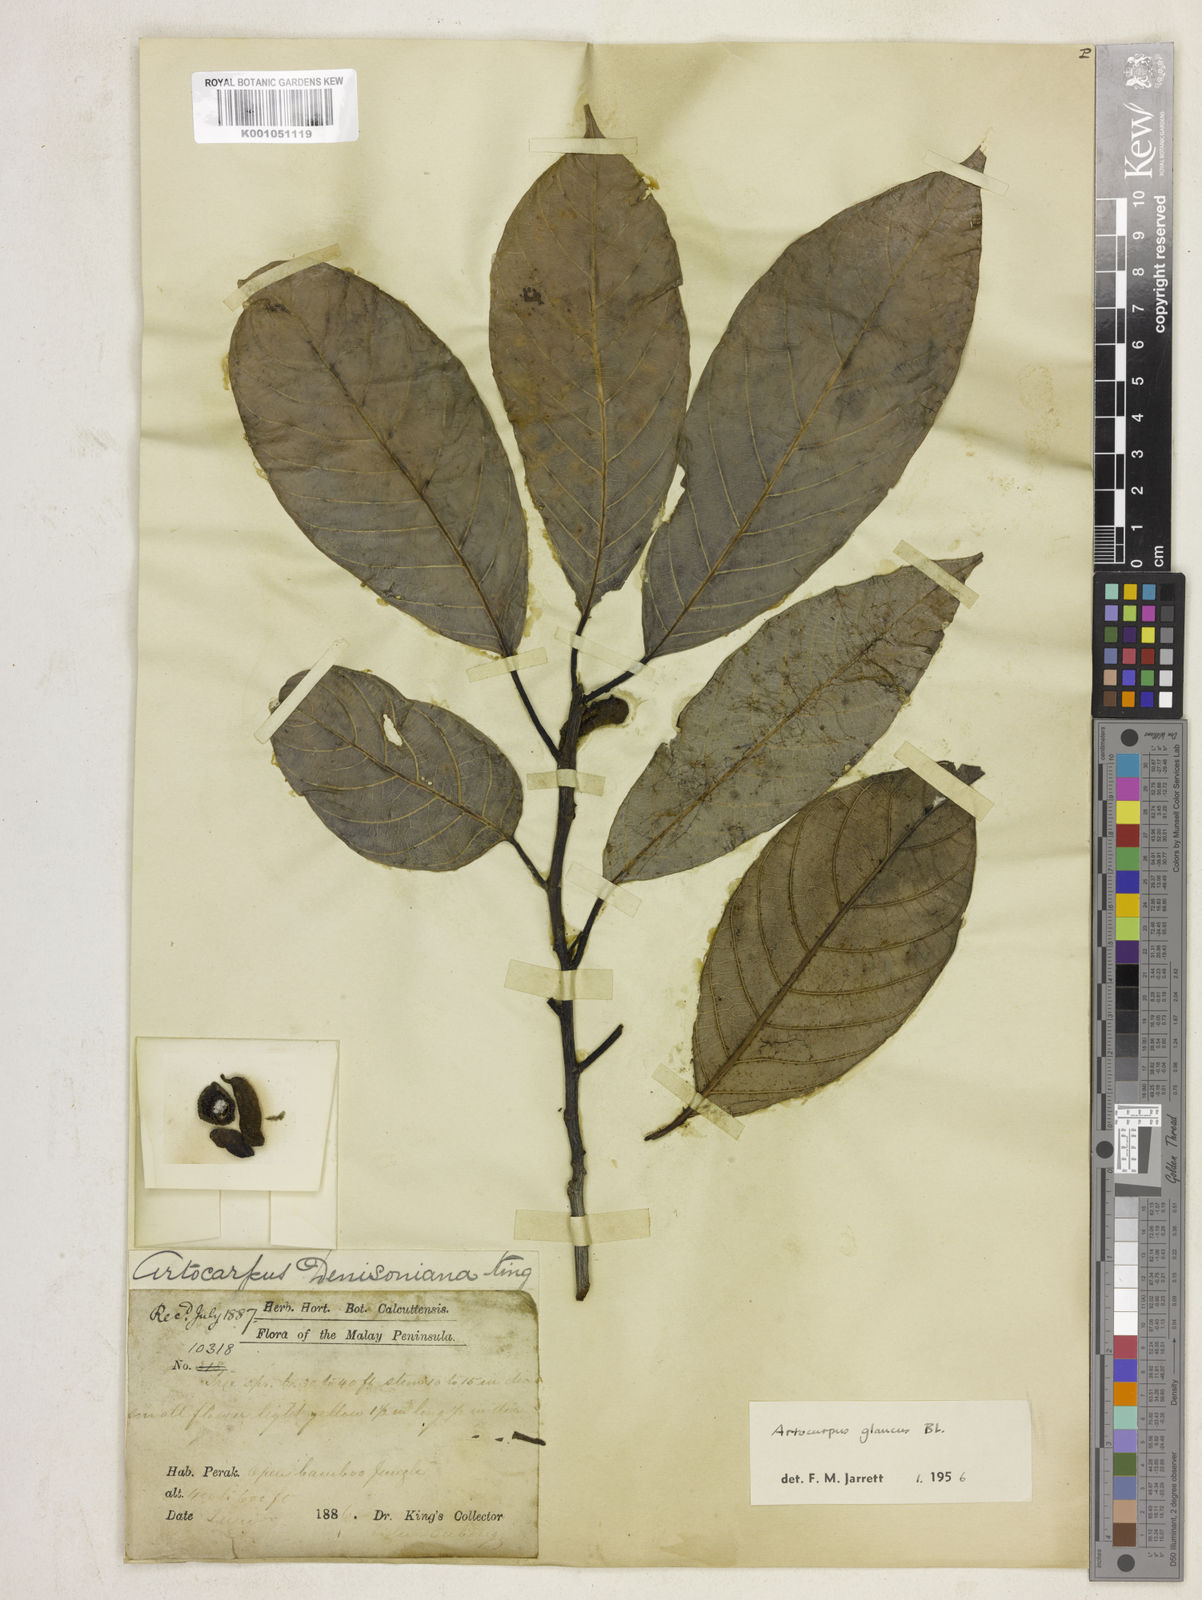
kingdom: Plantae
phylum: Tracheophyta
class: Magnoliopsida
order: Rosales
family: Moraceae
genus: Artocarpus
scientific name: Artocarpus glaucus
